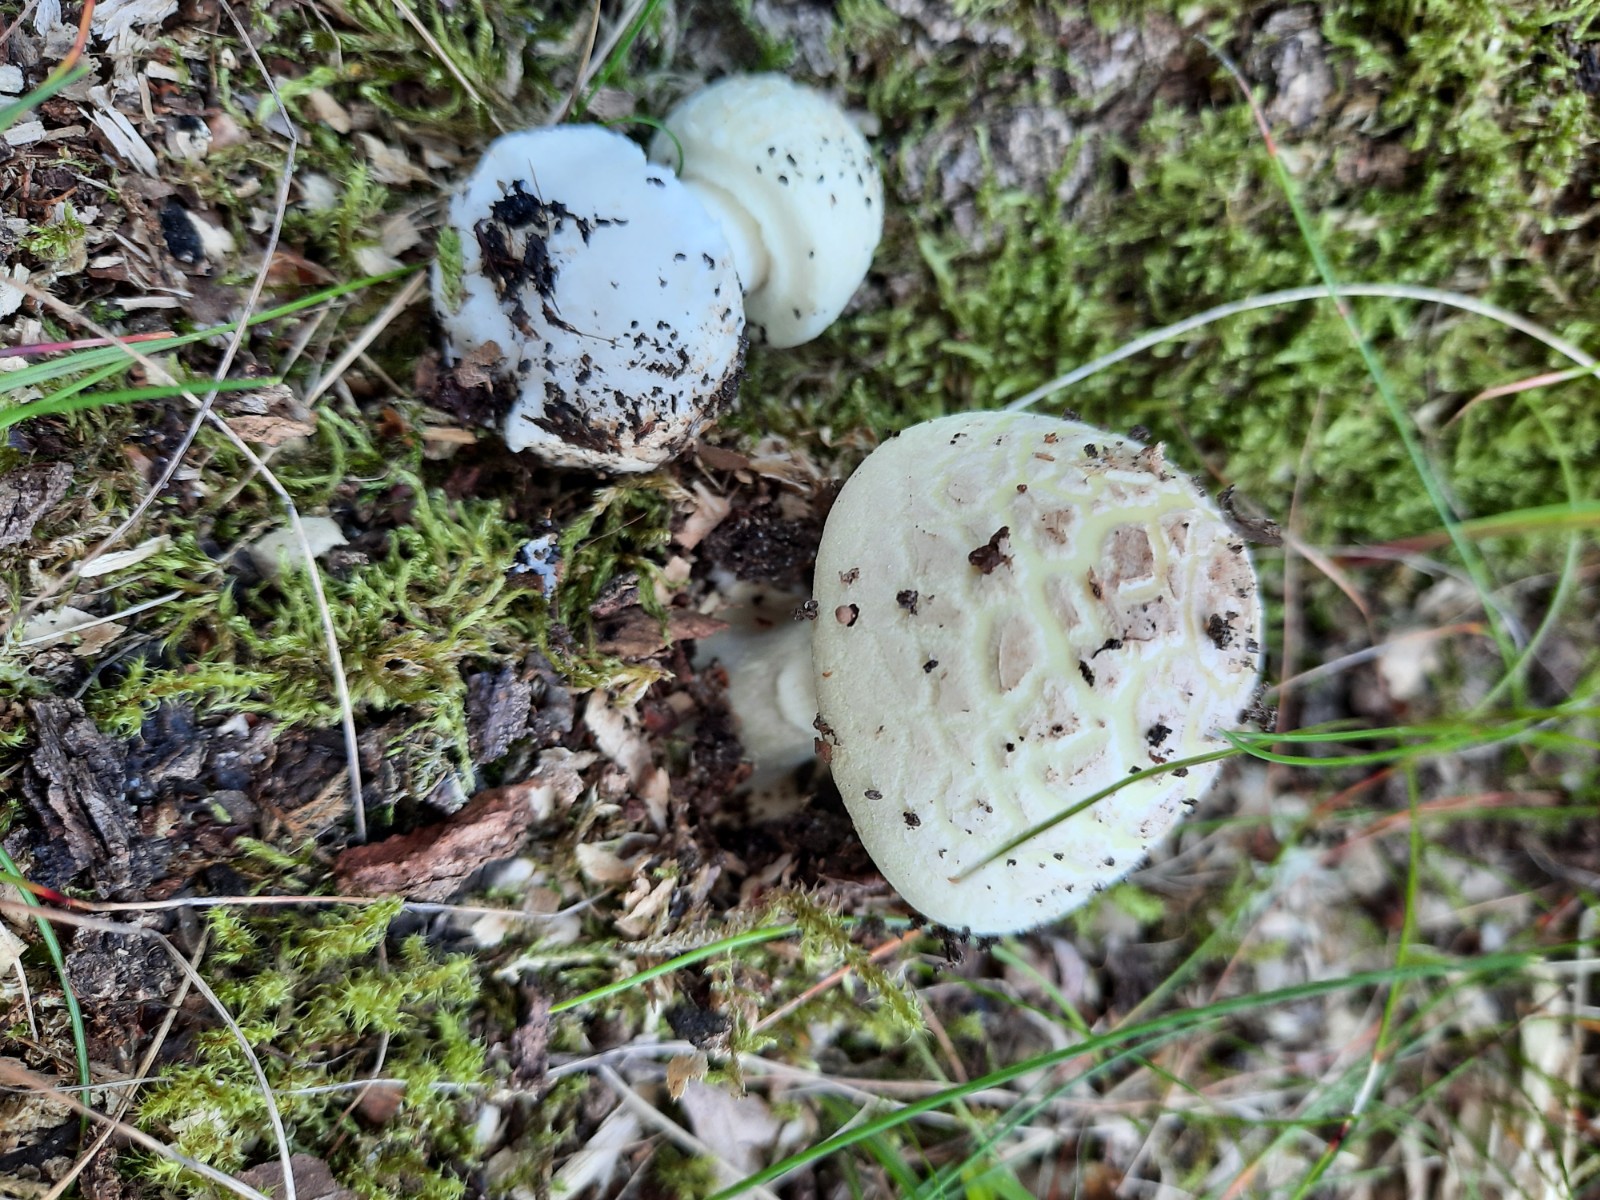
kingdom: Fungi
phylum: Basidiomycota
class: Agaricomycetes
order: Agaricales
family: Amanitaceae
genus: Amanita
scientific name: Amanita citrina
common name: kugleknoldet fluesvamp
